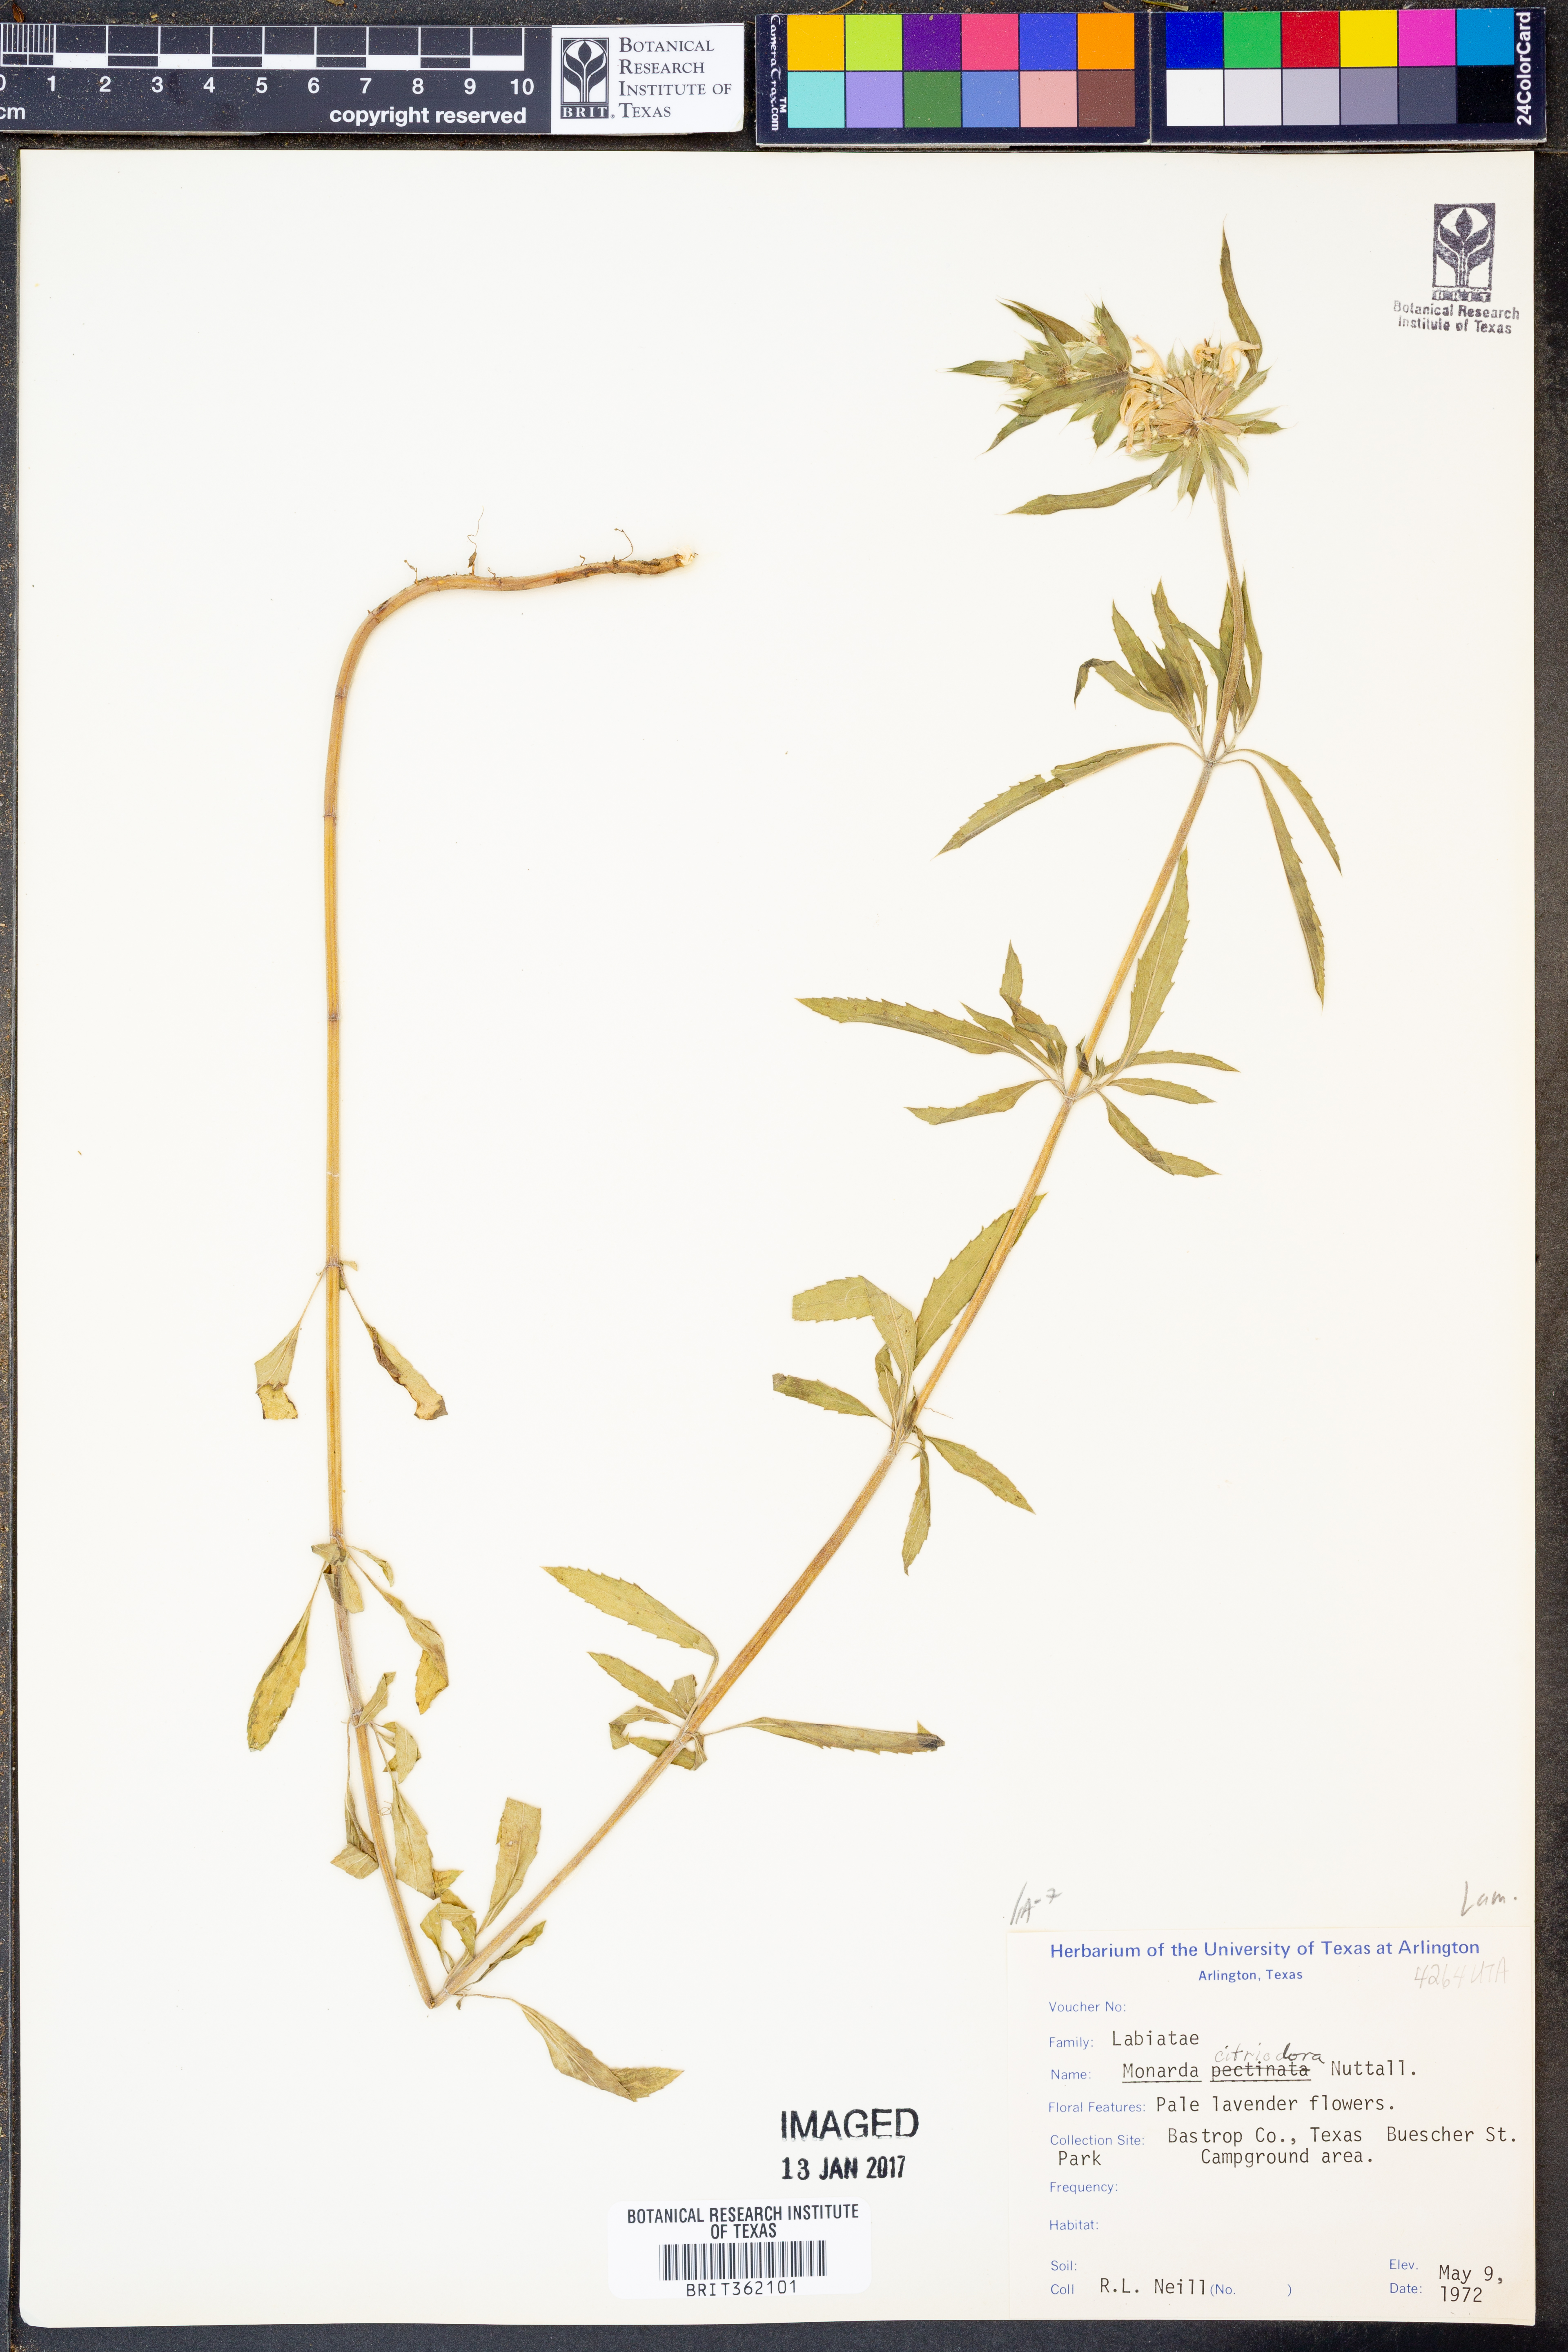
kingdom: Plantae
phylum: Tracheophyta
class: Magnoliopsida
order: Lamiales
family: Lamiaceae
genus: Monarda
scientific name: Monarda citriodora
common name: Lemon beebalm
